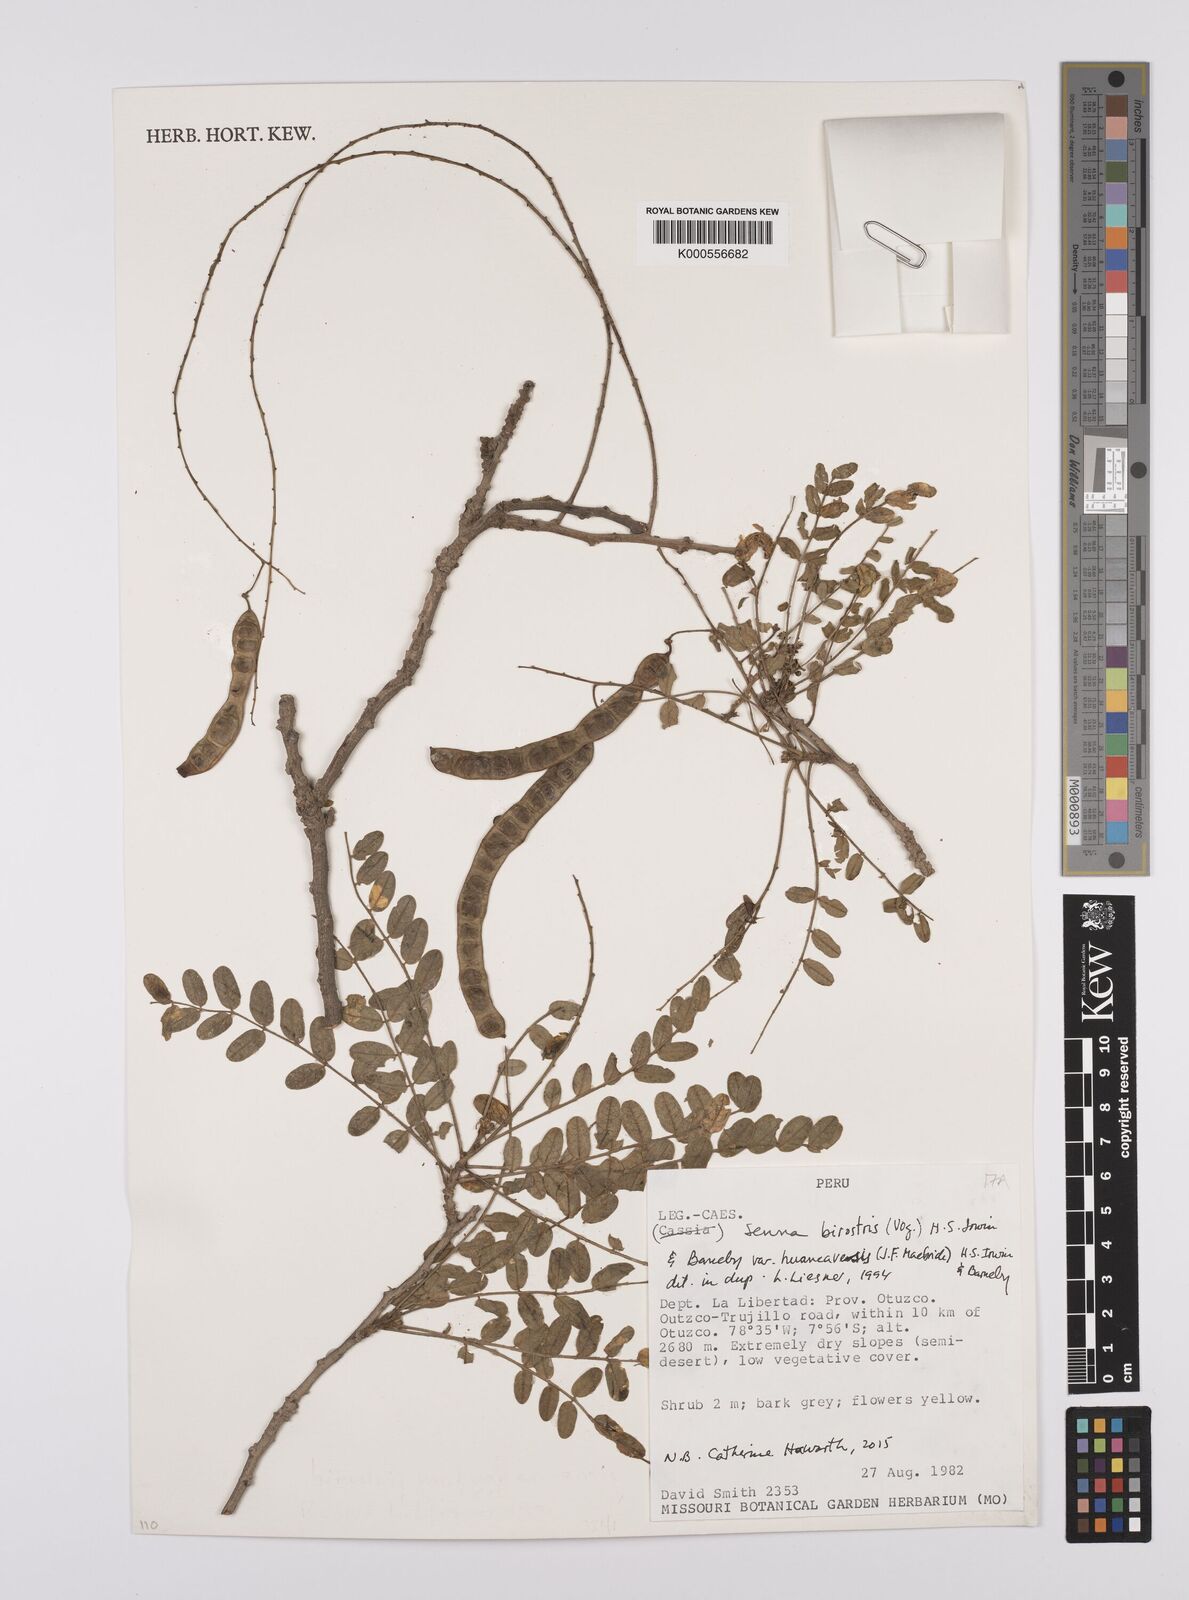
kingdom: Plantae
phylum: Tracheophyta
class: Magnoliopsida
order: Fabales
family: Fabaceae
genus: Senna
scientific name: Senna birostris
